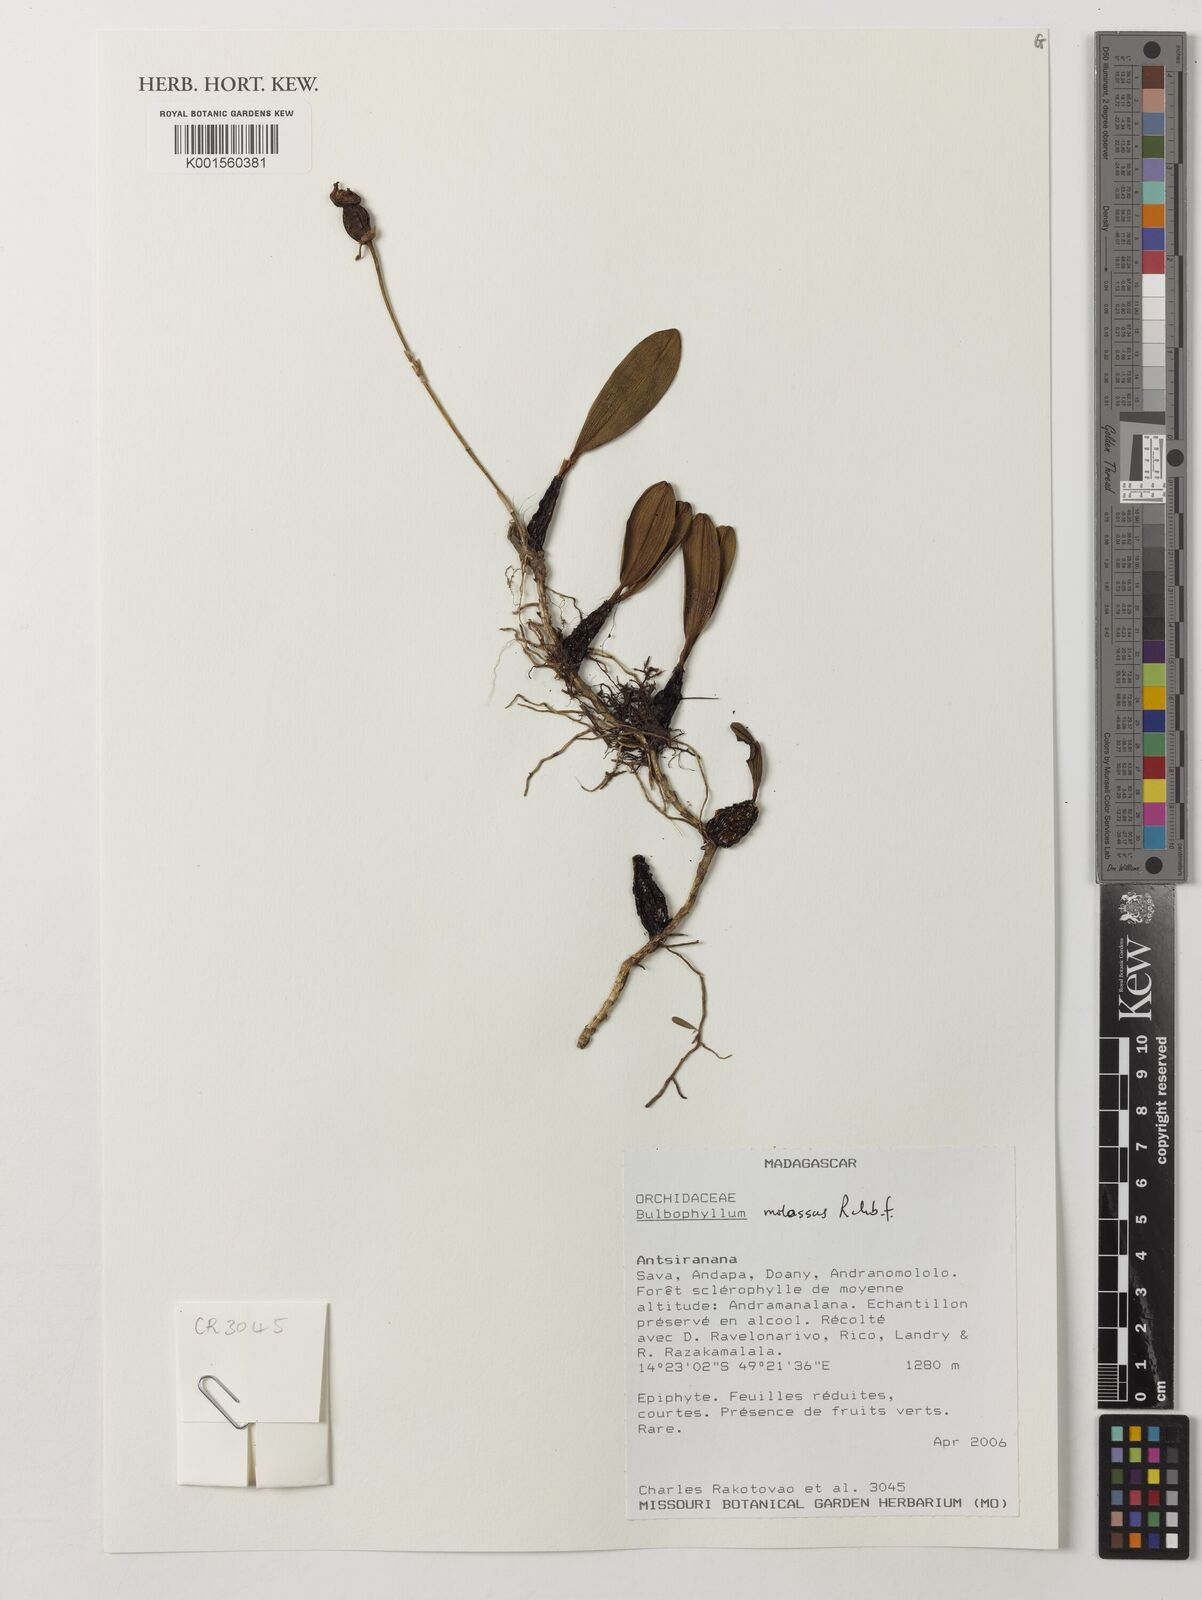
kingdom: Plantae
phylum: Tracheophyta
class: Liliopsida
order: Asparagales
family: Orchidaceae
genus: Bulbophyllum
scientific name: Bulbophyllum molossus
